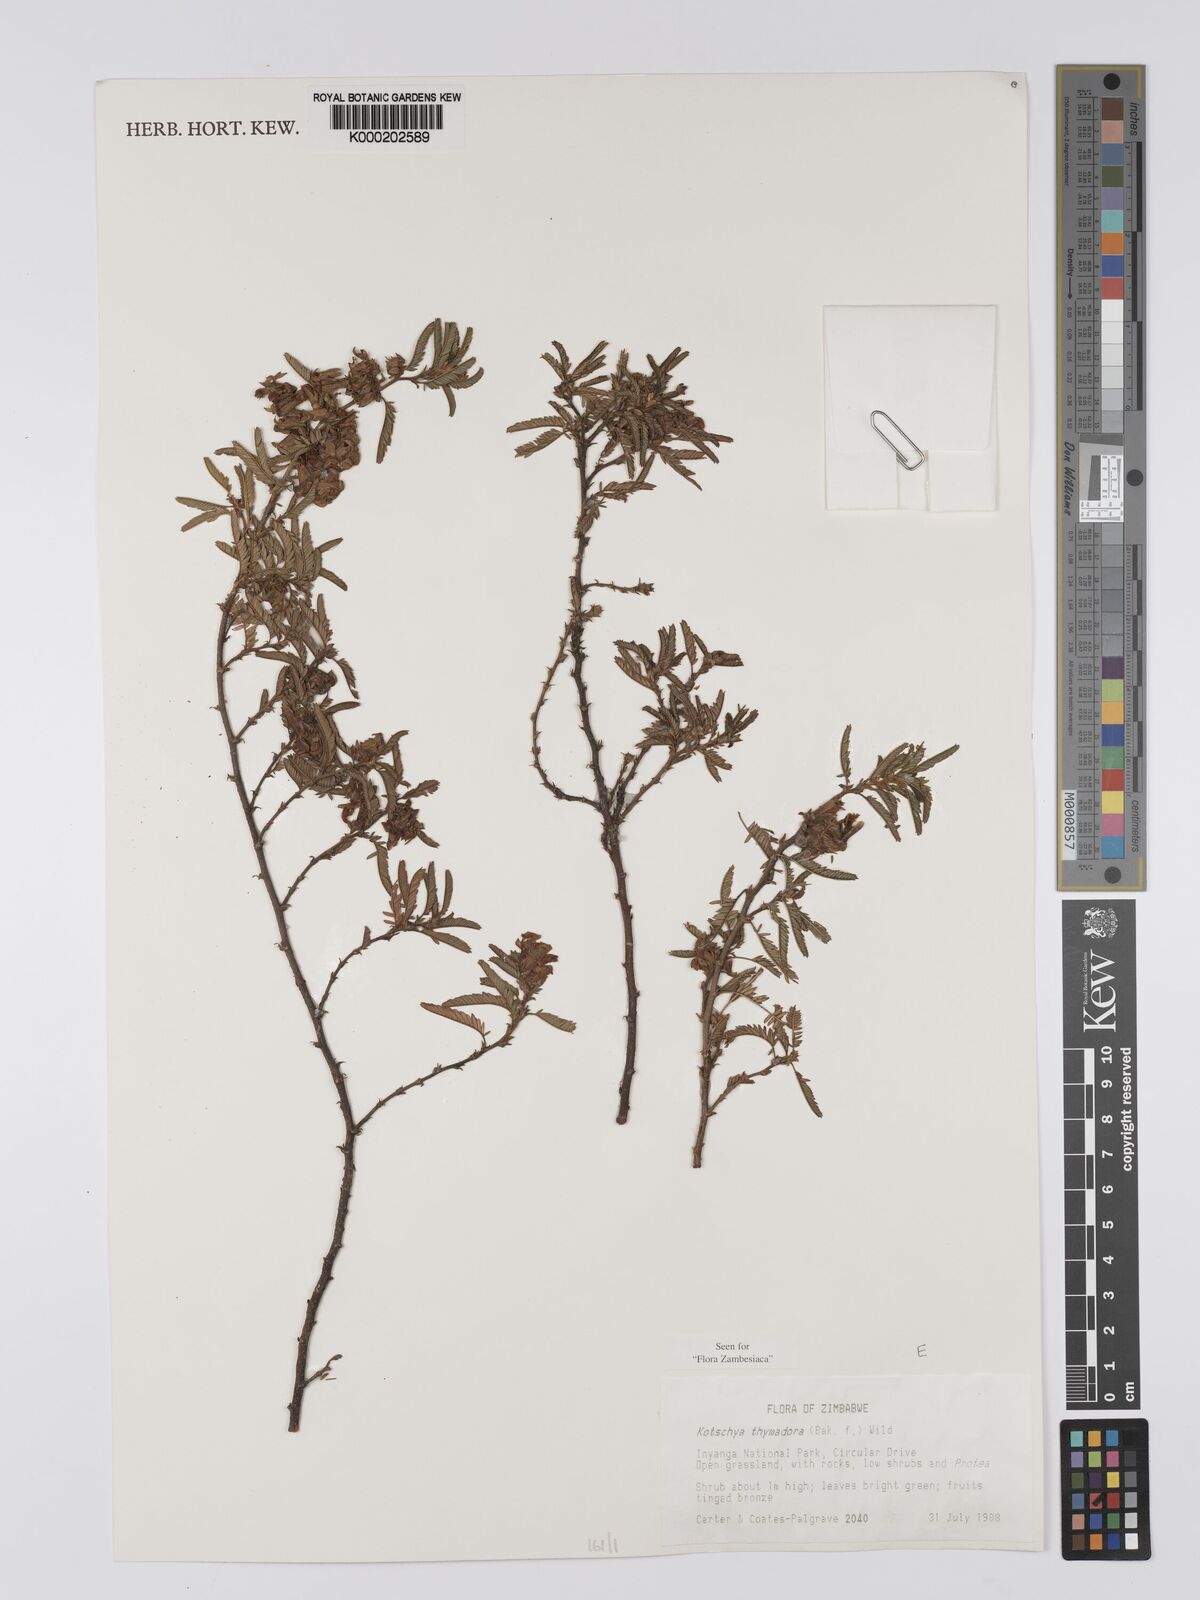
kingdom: Plantae
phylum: Tracheophyta
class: Magnoliopsida
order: Fabales
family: Fabaceae
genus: Kotschya
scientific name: Kotschya thymodora
